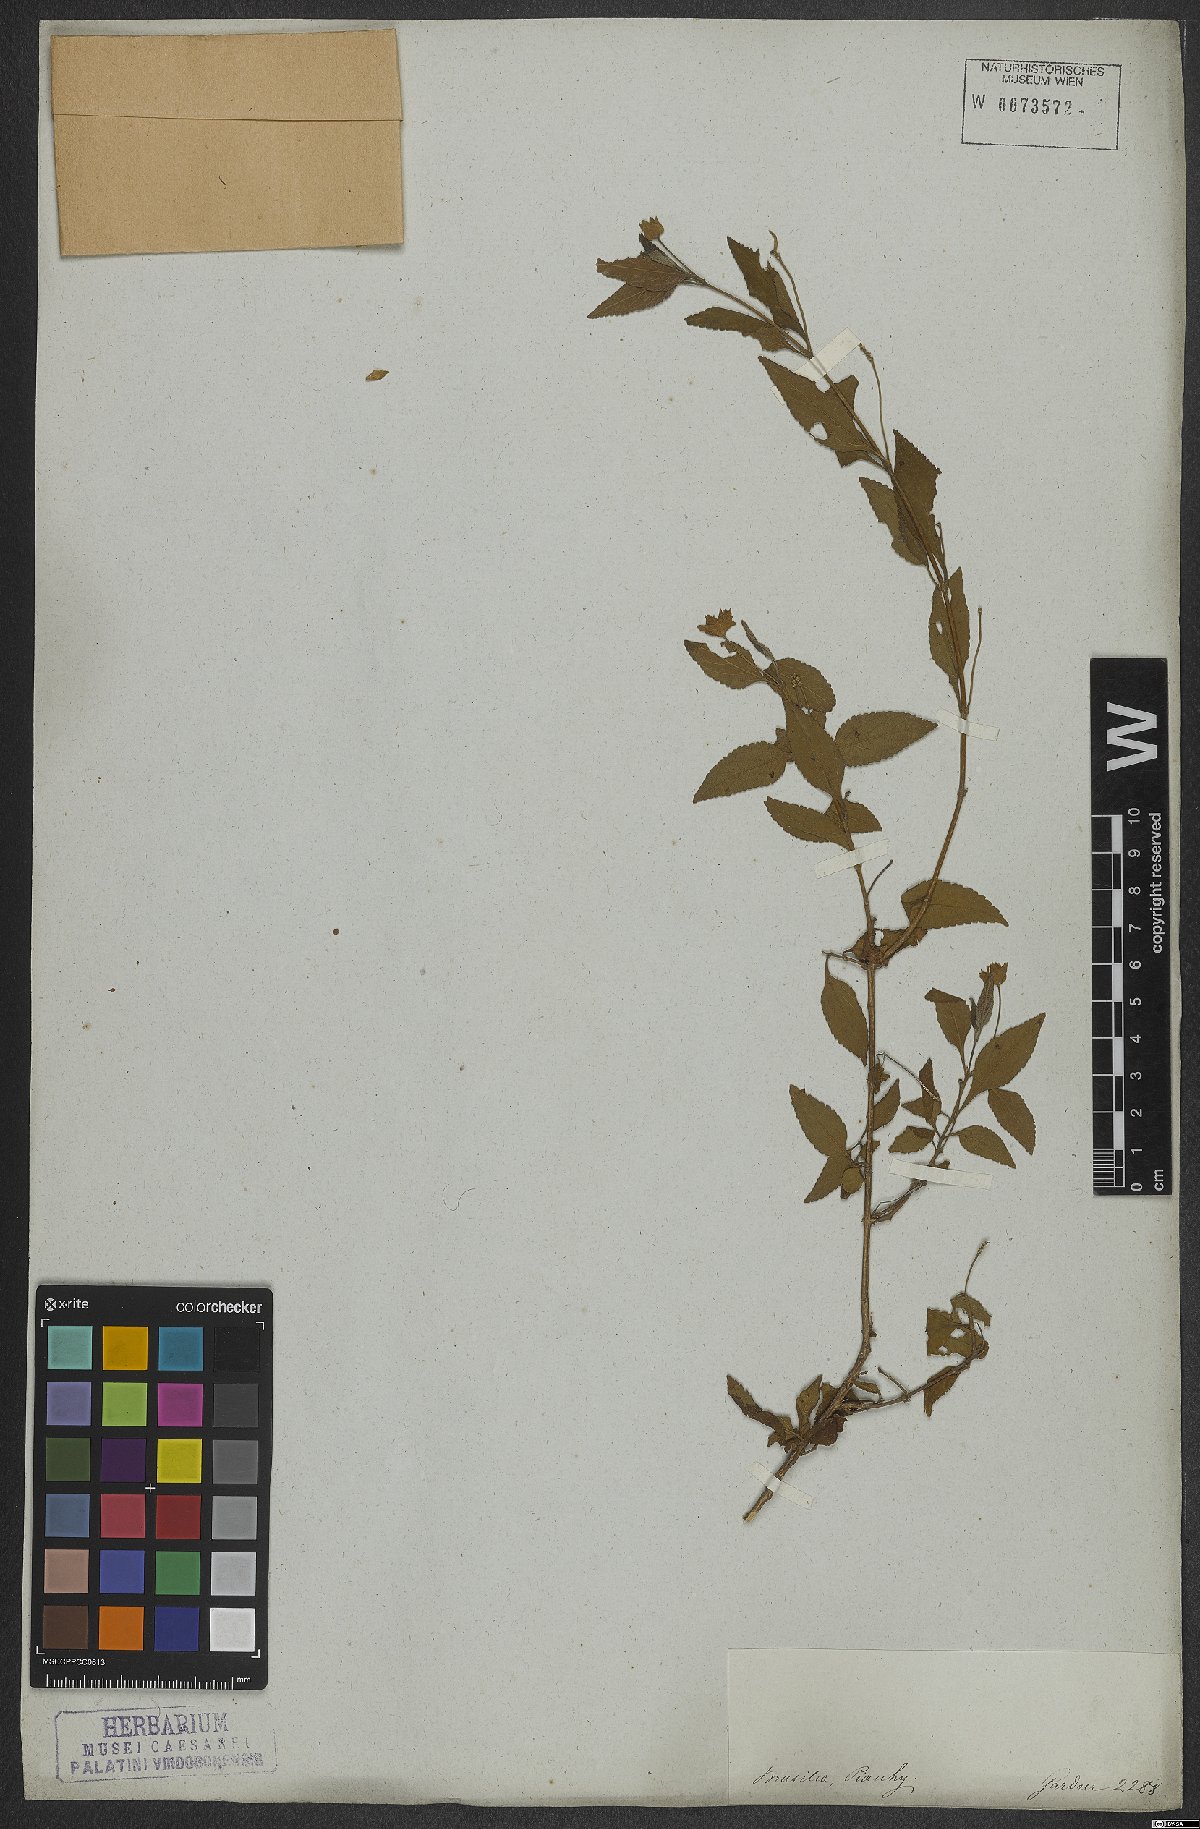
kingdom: Plantae
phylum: Tracheophyta
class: Magnoliopsida
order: Lamiales
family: Verbenaceae
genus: Lantana
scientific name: Lantana fucata
